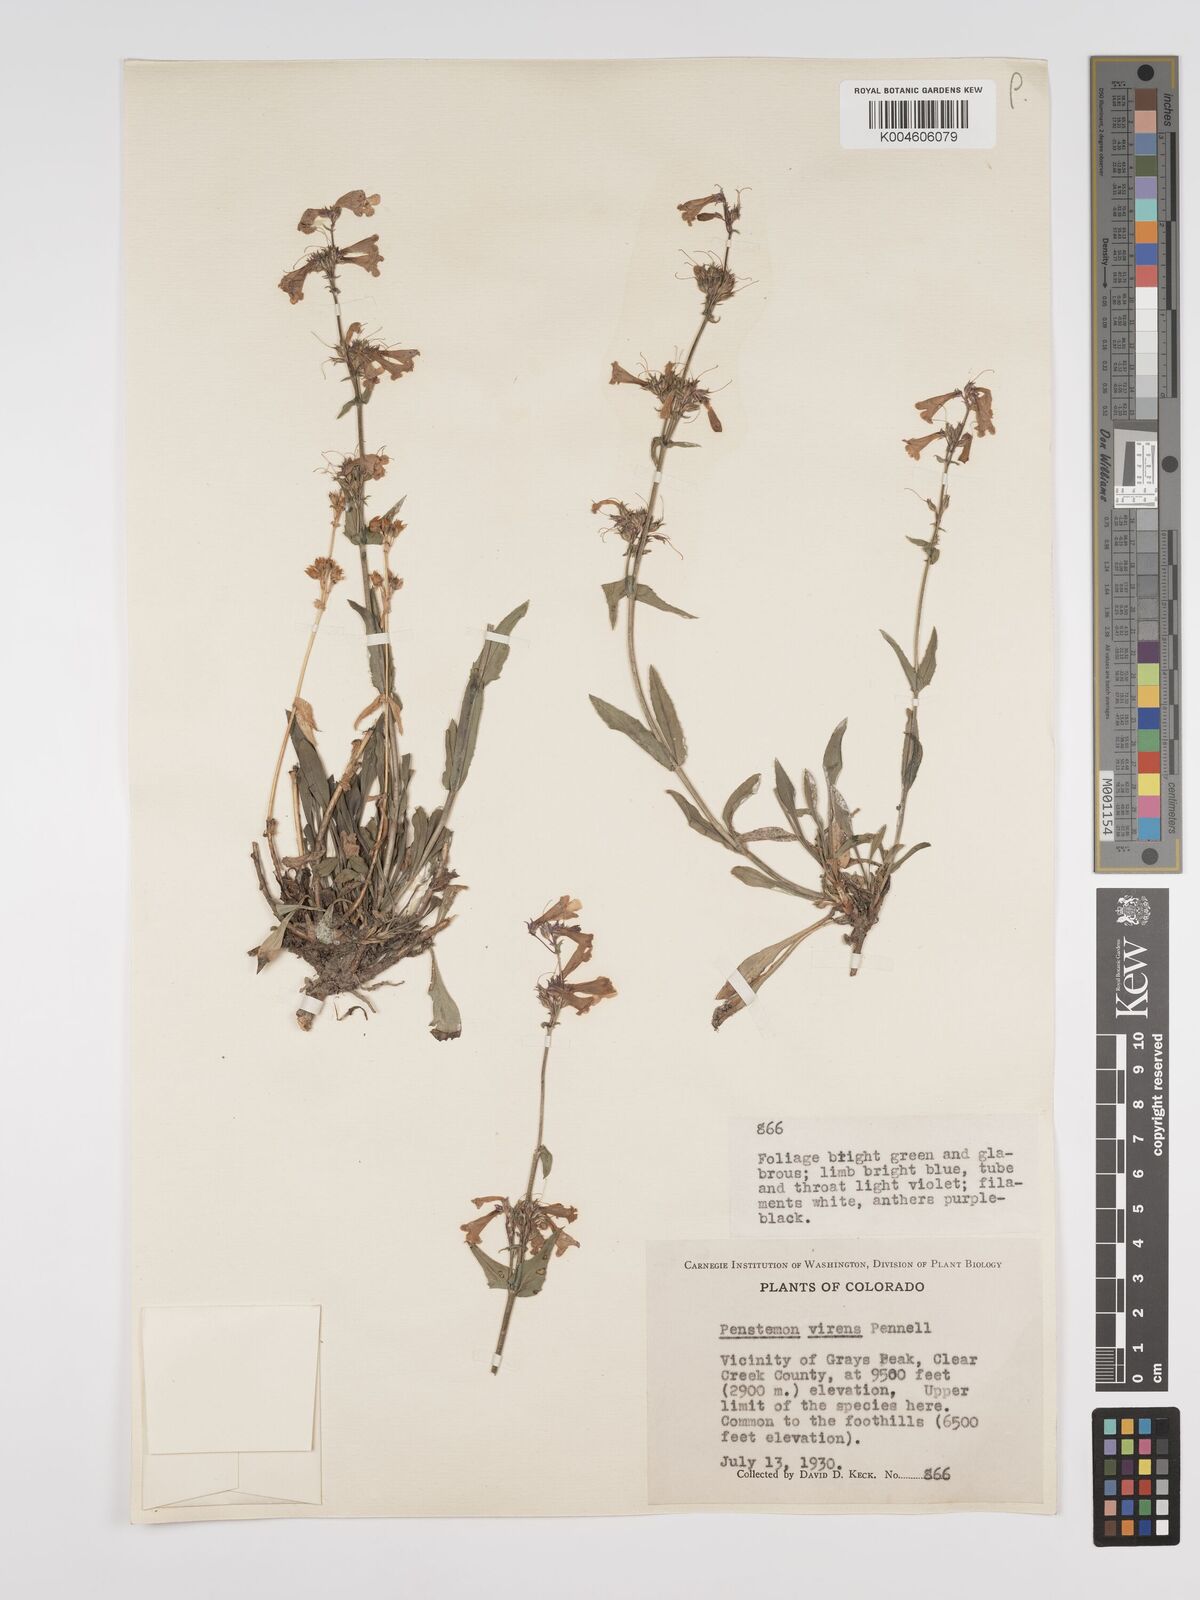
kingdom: Plantae
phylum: Tracheophyta
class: Magnoliopsida
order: Lamiales
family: Plantaginaceae
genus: Penstemon
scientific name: Penstemon virens
